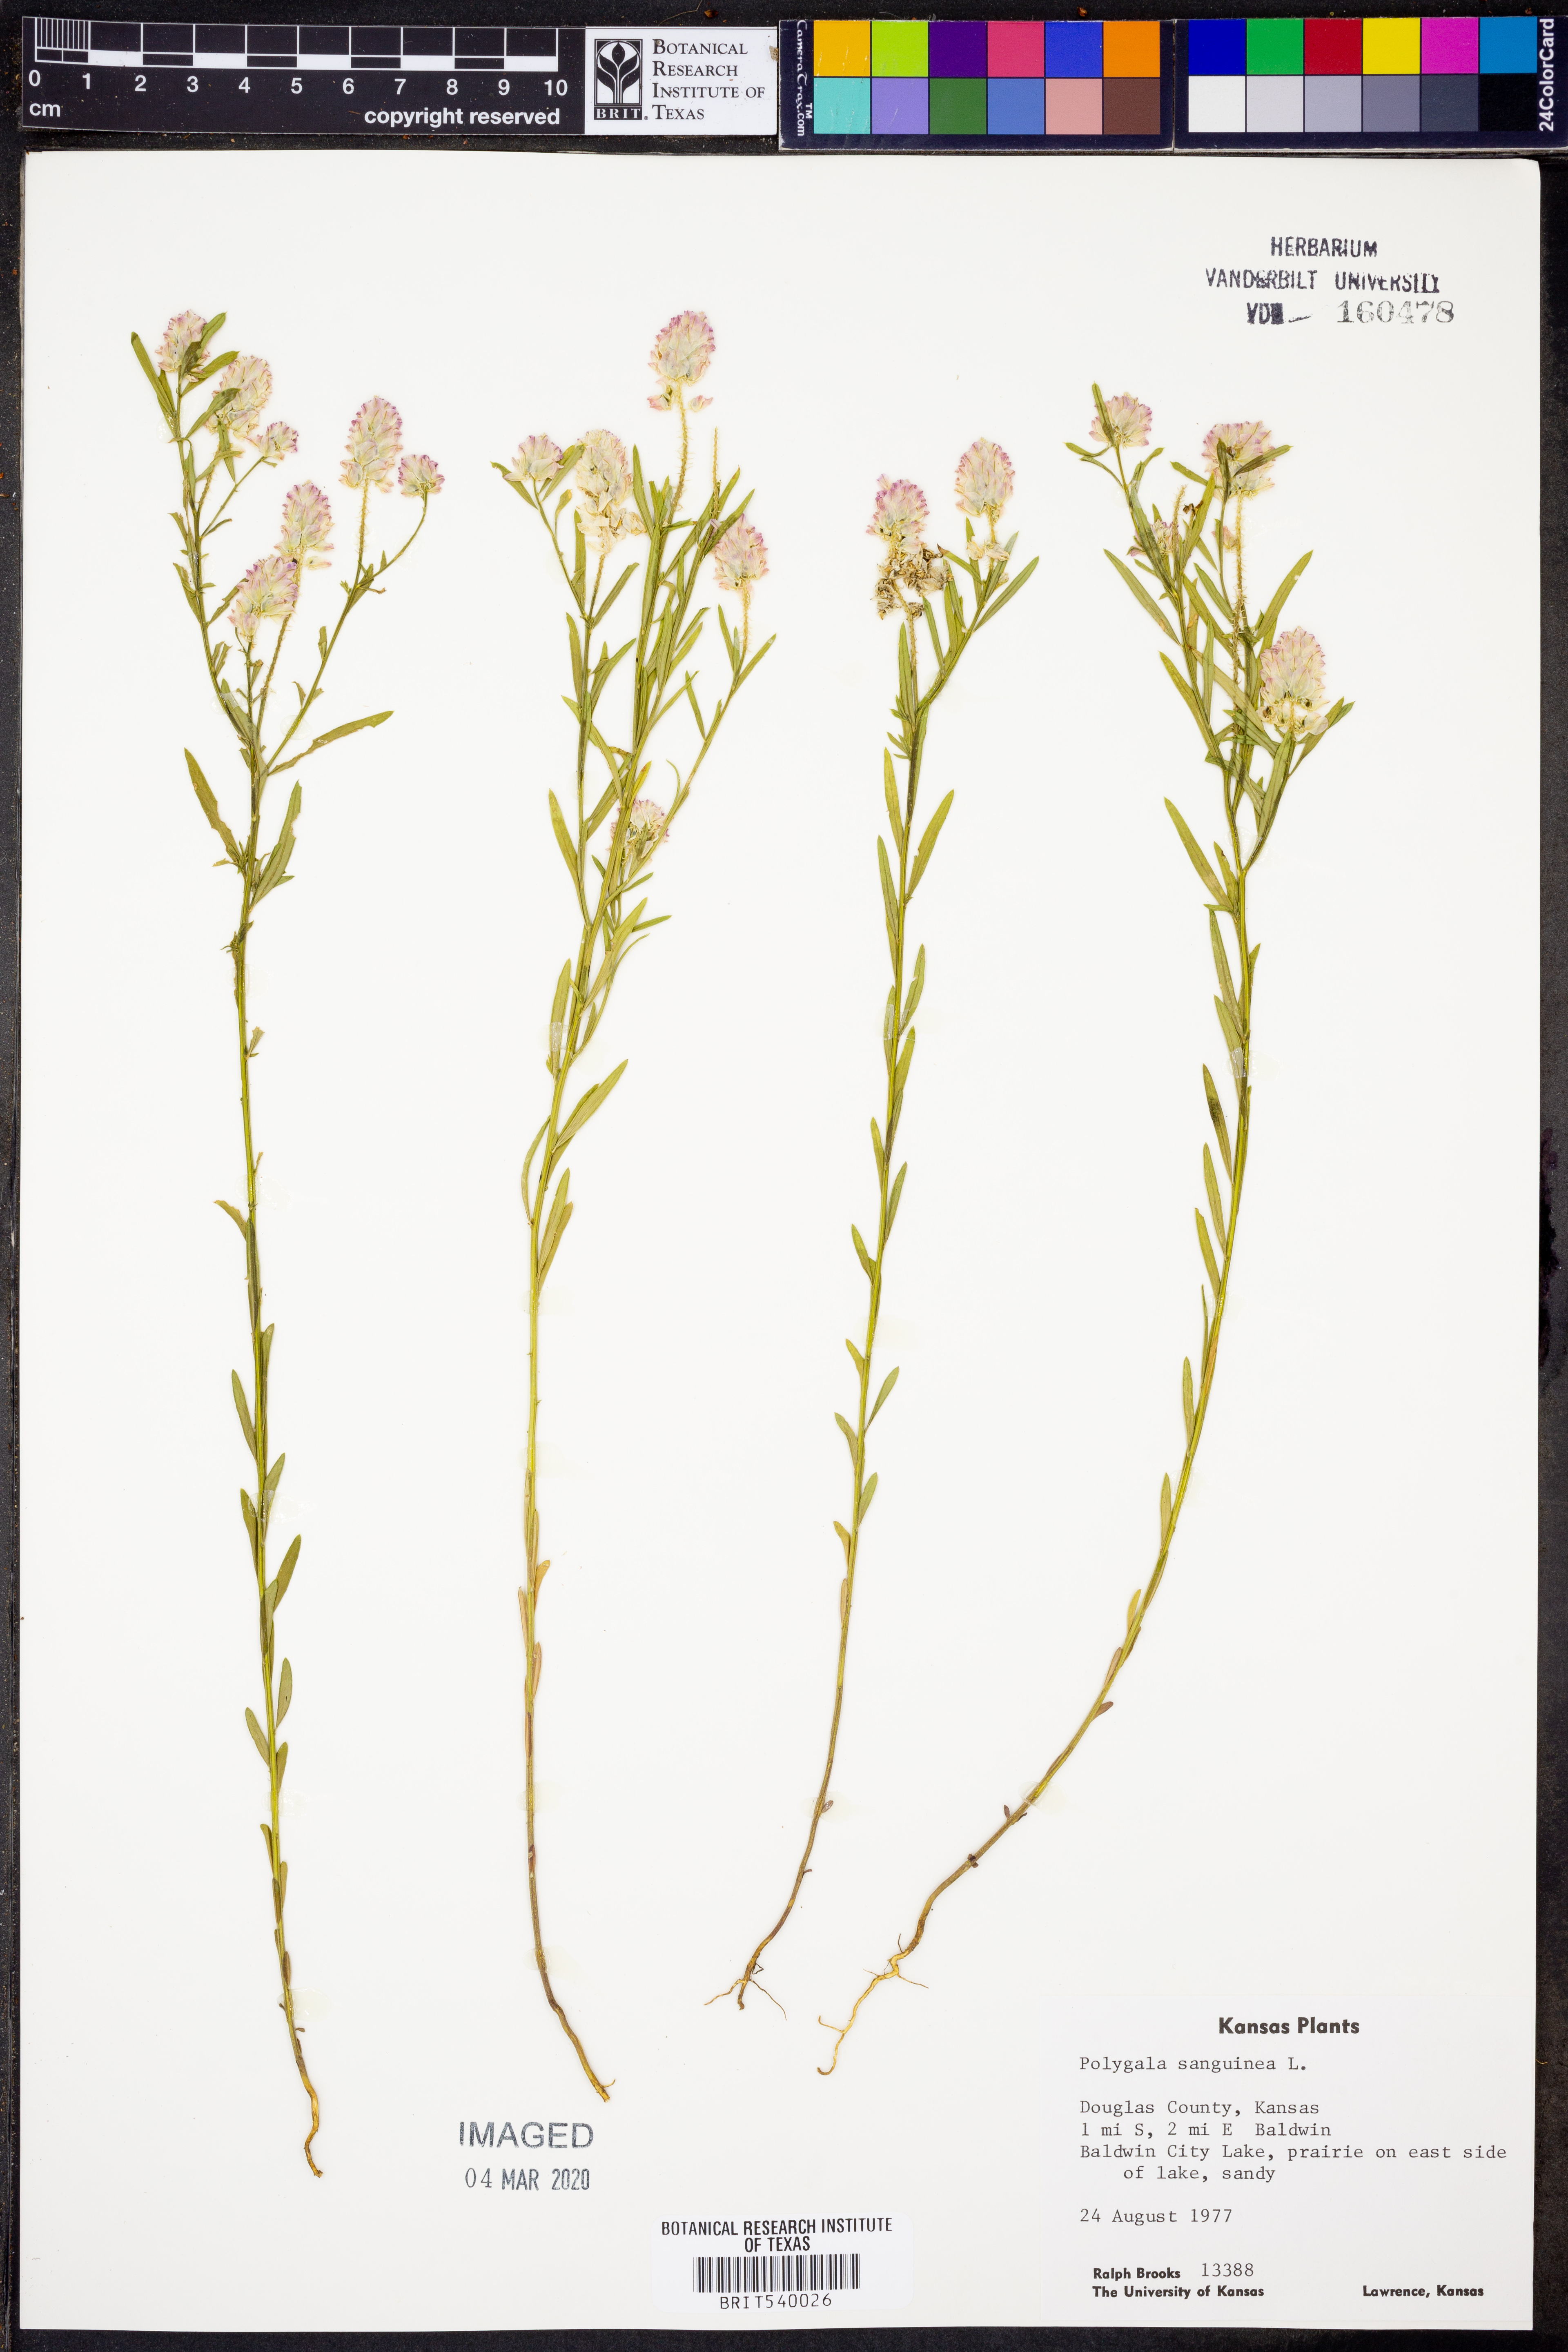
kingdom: Plantae
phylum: Tracheophyta
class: Magnoliopsida
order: Fabales
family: Polygalaceae
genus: Polygala
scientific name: Polygala sanguinea
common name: Blood milkwort
